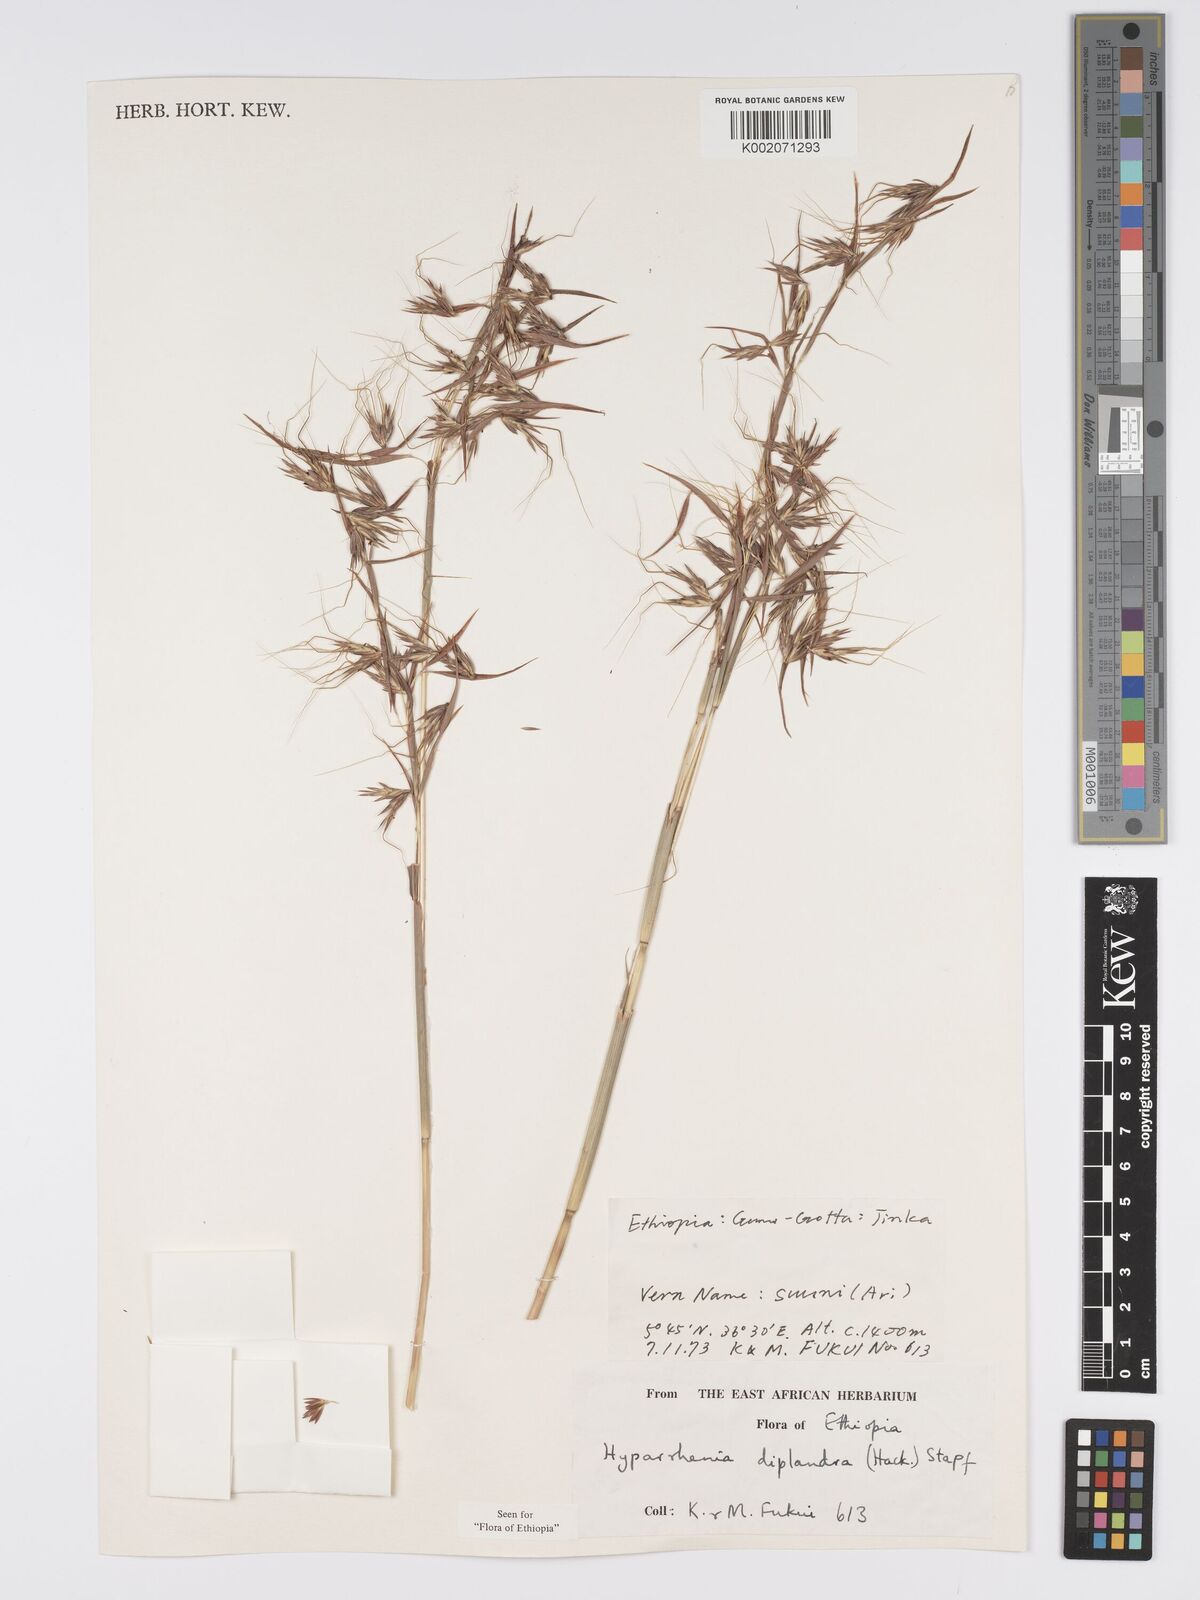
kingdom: Plantae
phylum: Tracheophyta
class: Liliopsida
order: Poales
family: Poaceae
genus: Hyparrhenia
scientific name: Hyparrhenia diplandra
